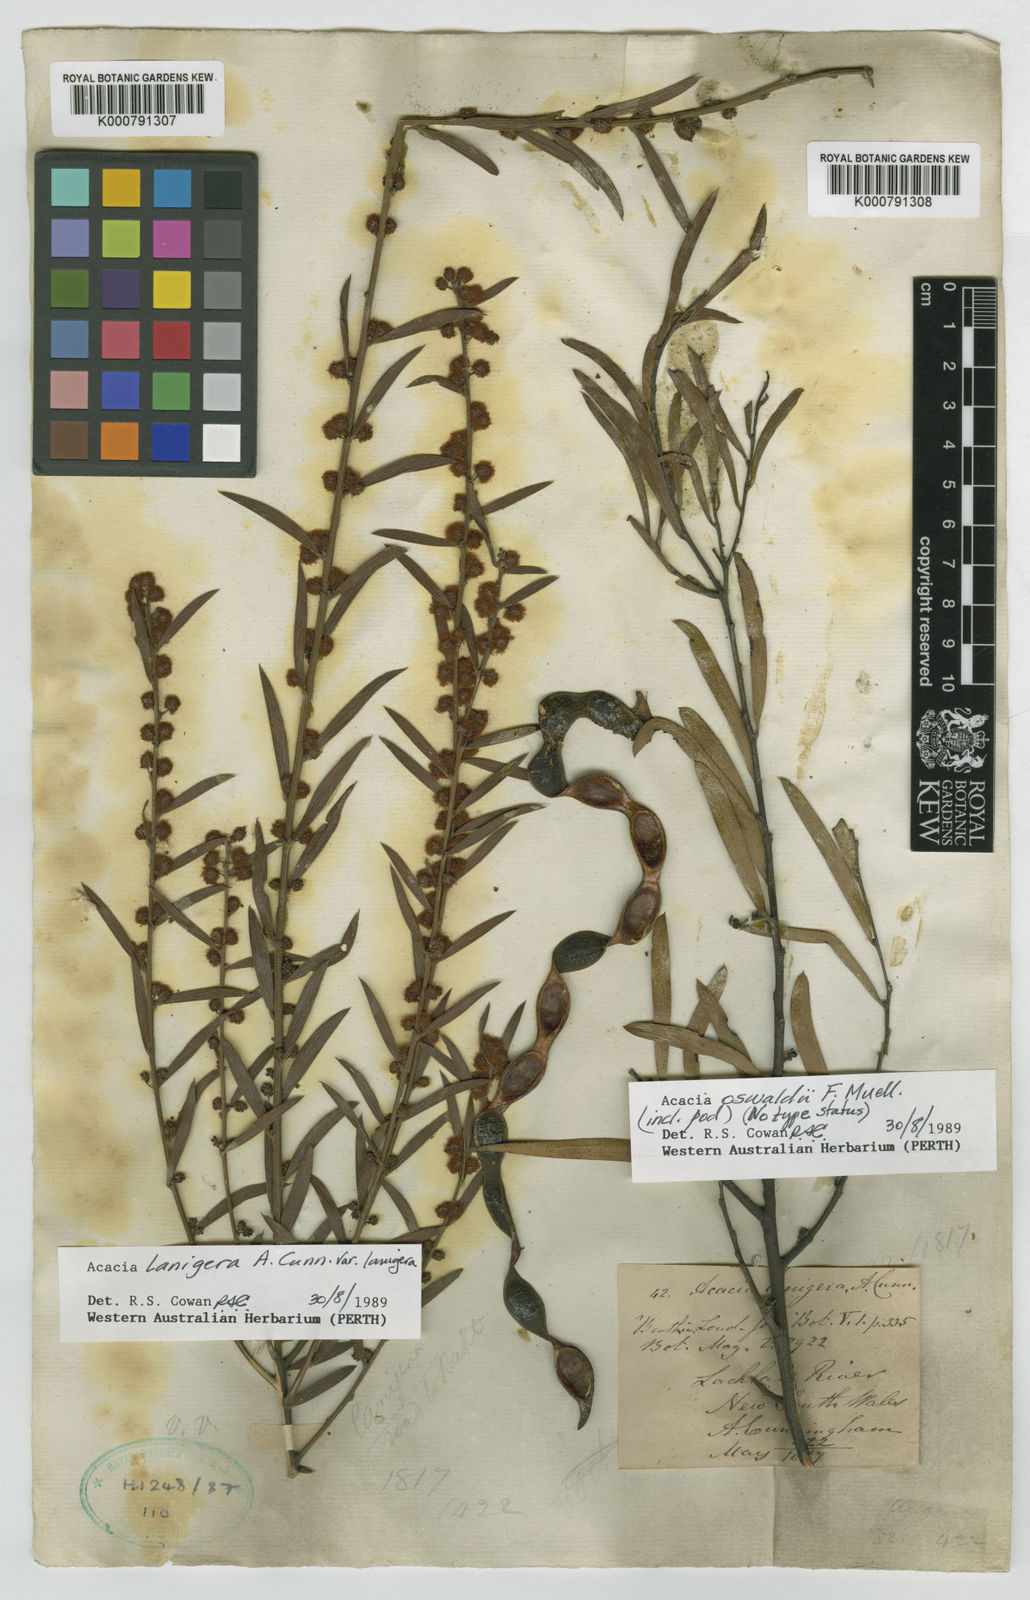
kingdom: Plantae
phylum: Tracheophyta
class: Magnoliopsida
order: Fabales
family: Fabaceae
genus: Acacia
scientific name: Acacia lanigera
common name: Hairy wattle
